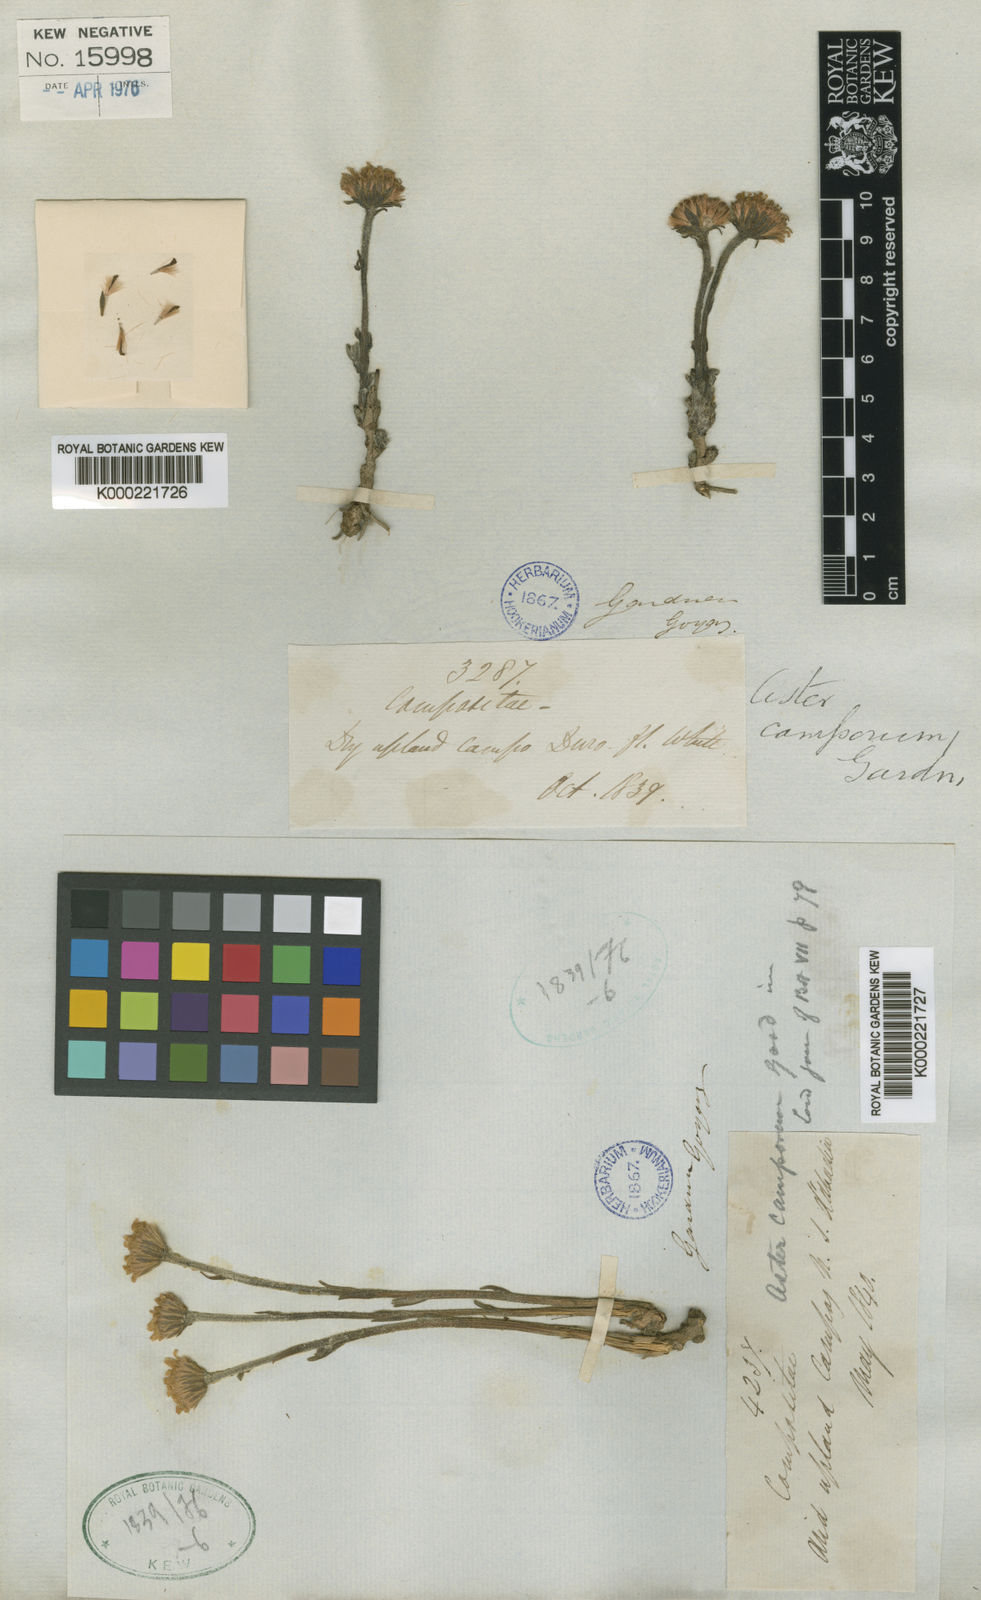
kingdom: Plantae
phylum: Tracheophyta
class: Magnoliopsida
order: Asterales
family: Asteraceae
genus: Inulopsis
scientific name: Inulopsis camporum
